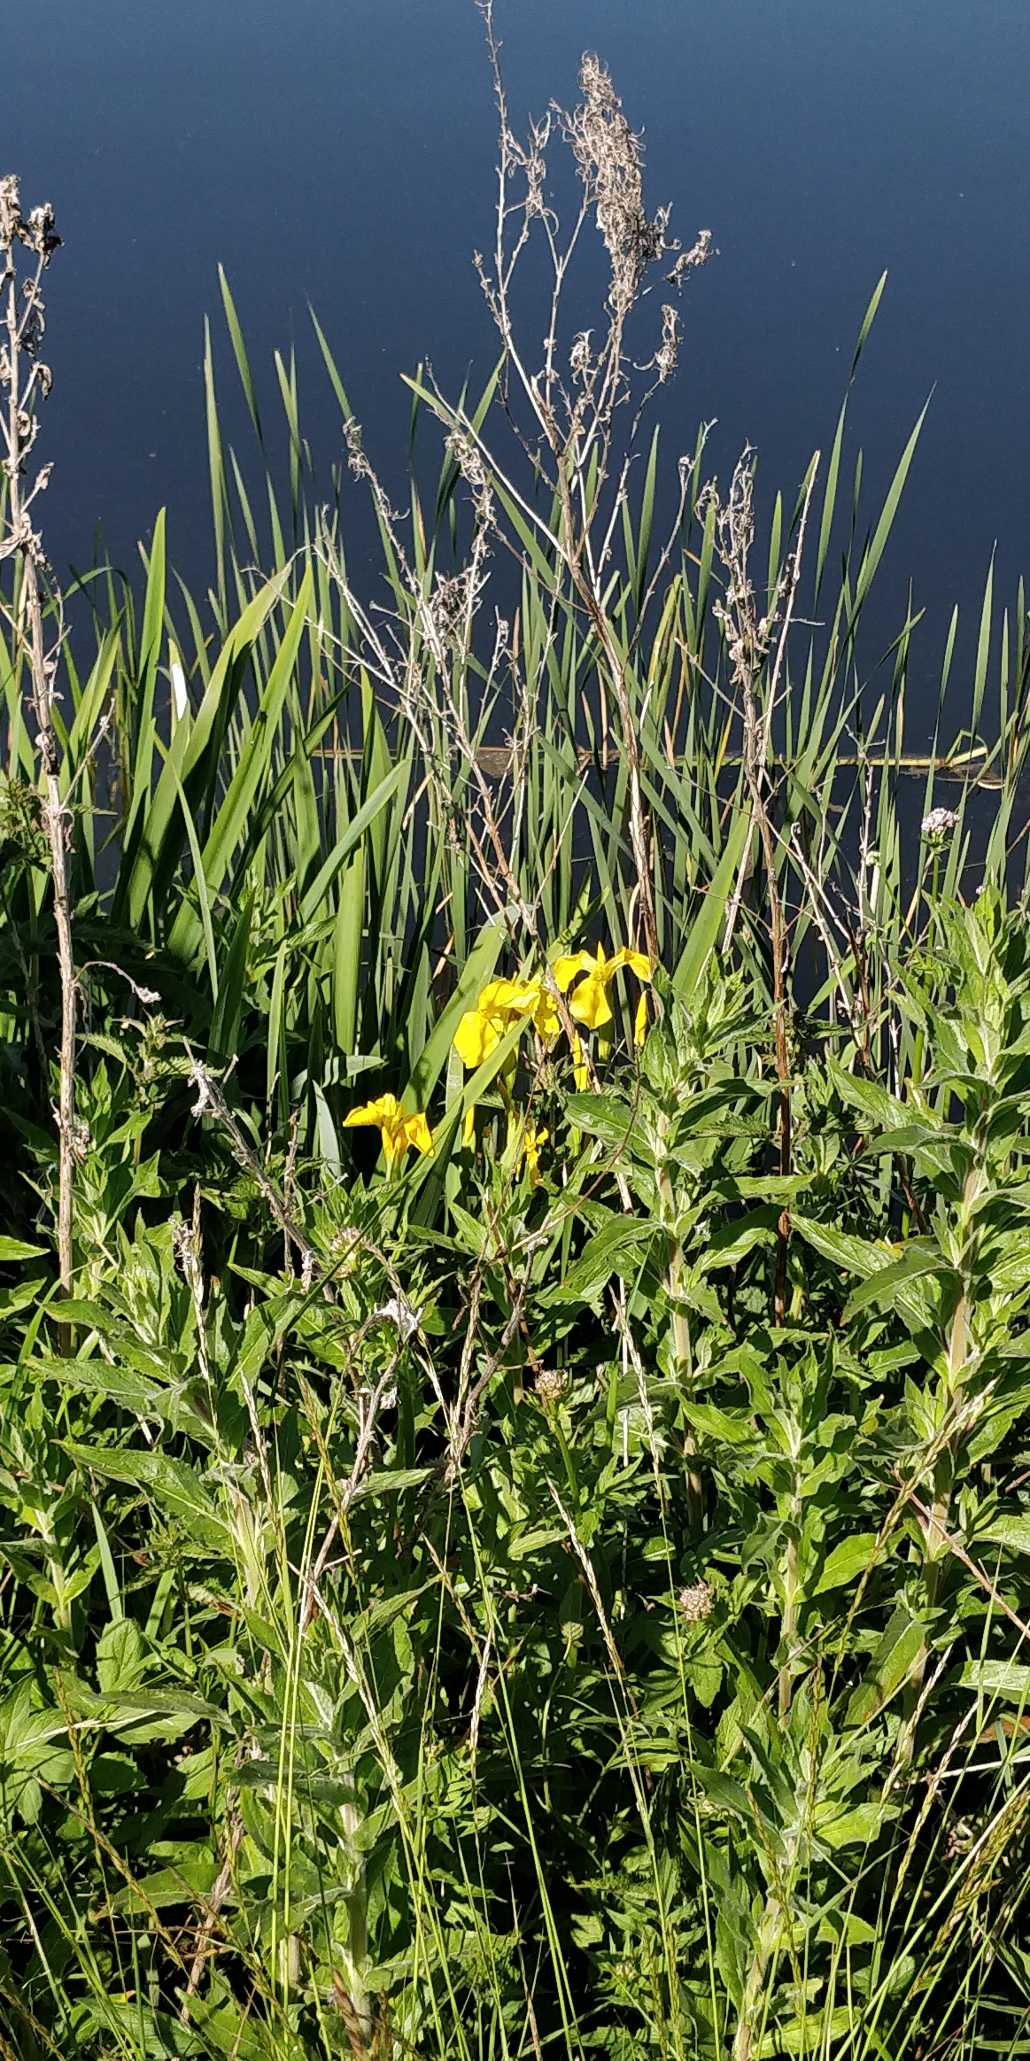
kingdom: Plantae
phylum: Tracheophyta
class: Liliopsida
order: Asparagales
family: Iridaceae
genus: Iris
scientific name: Iris pseudacorus
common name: Gul iris
